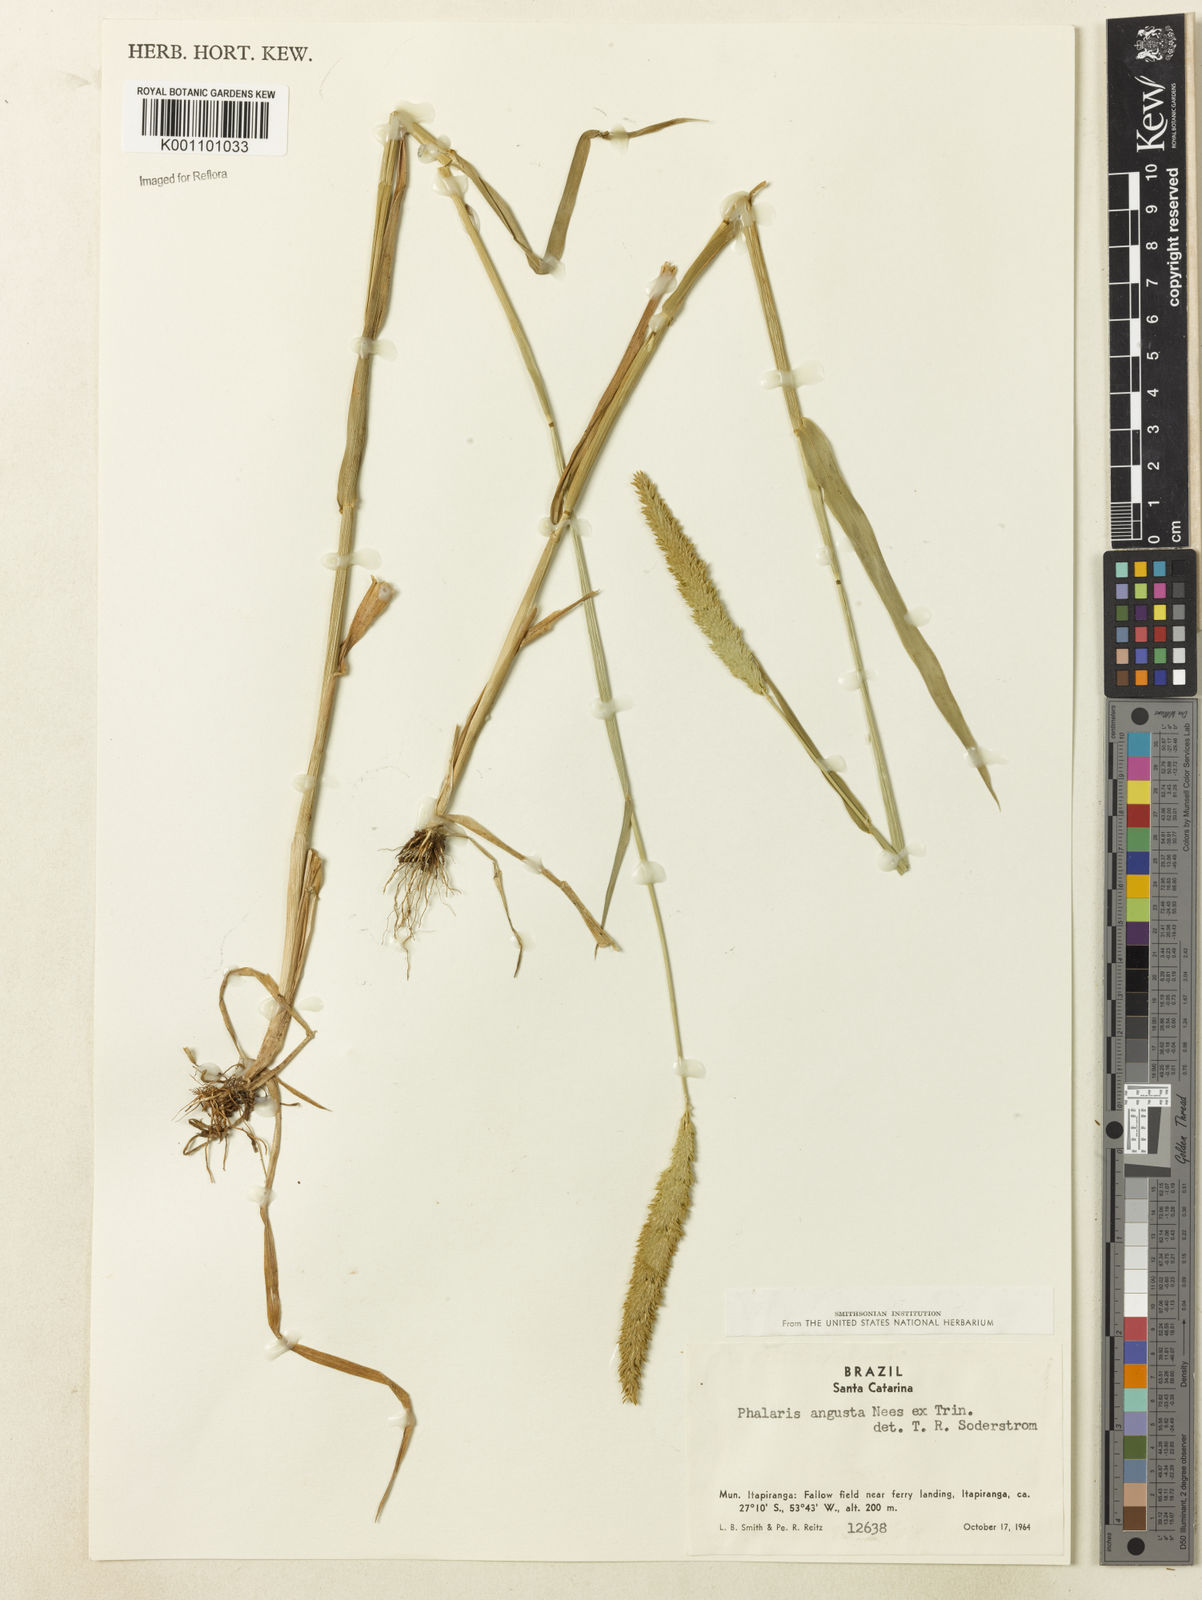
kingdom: Plantae
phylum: Tracheophyta
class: Liliopsida
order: Poales
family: Poaceae
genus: Phalaris
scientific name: Phalaris angusta
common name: Narrow canary grass
